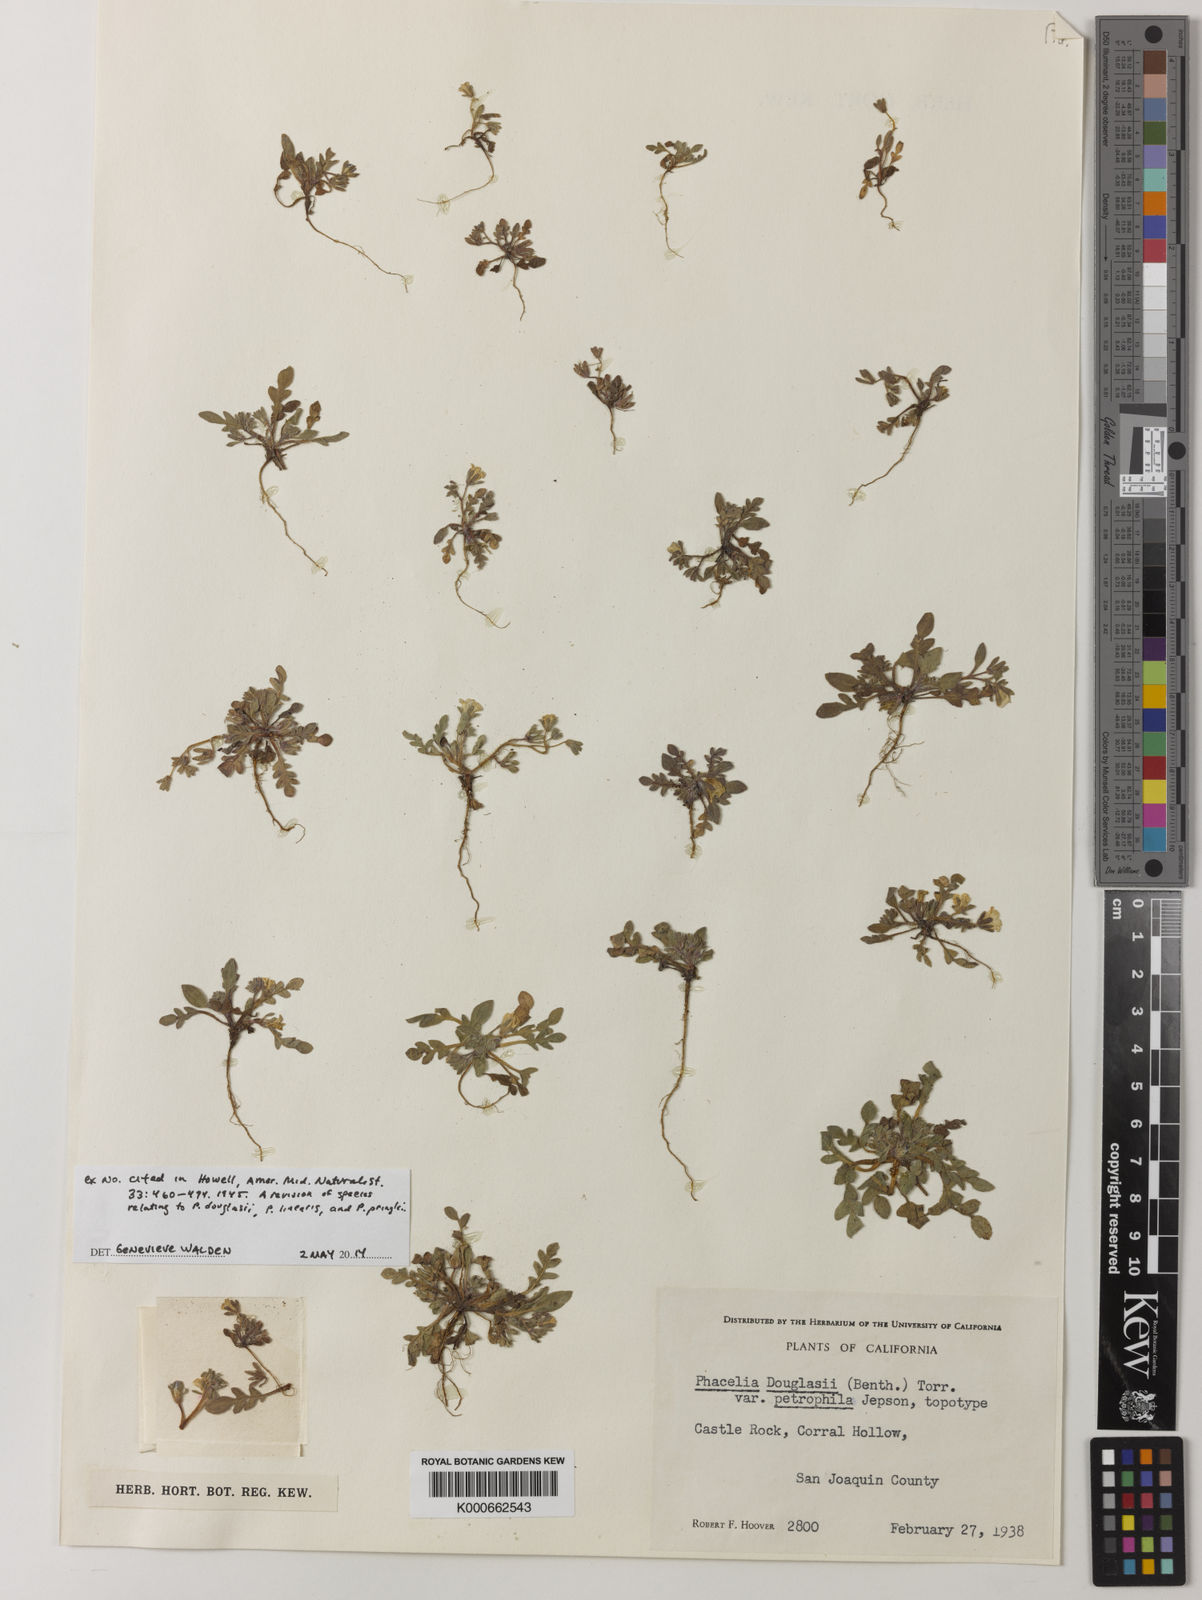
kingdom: Plantae
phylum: Tracheophyta
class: Magnoliopsida
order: Boraginales
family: Hydrophyllaceae
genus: Phacelia
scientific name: Phacelia douglasii
